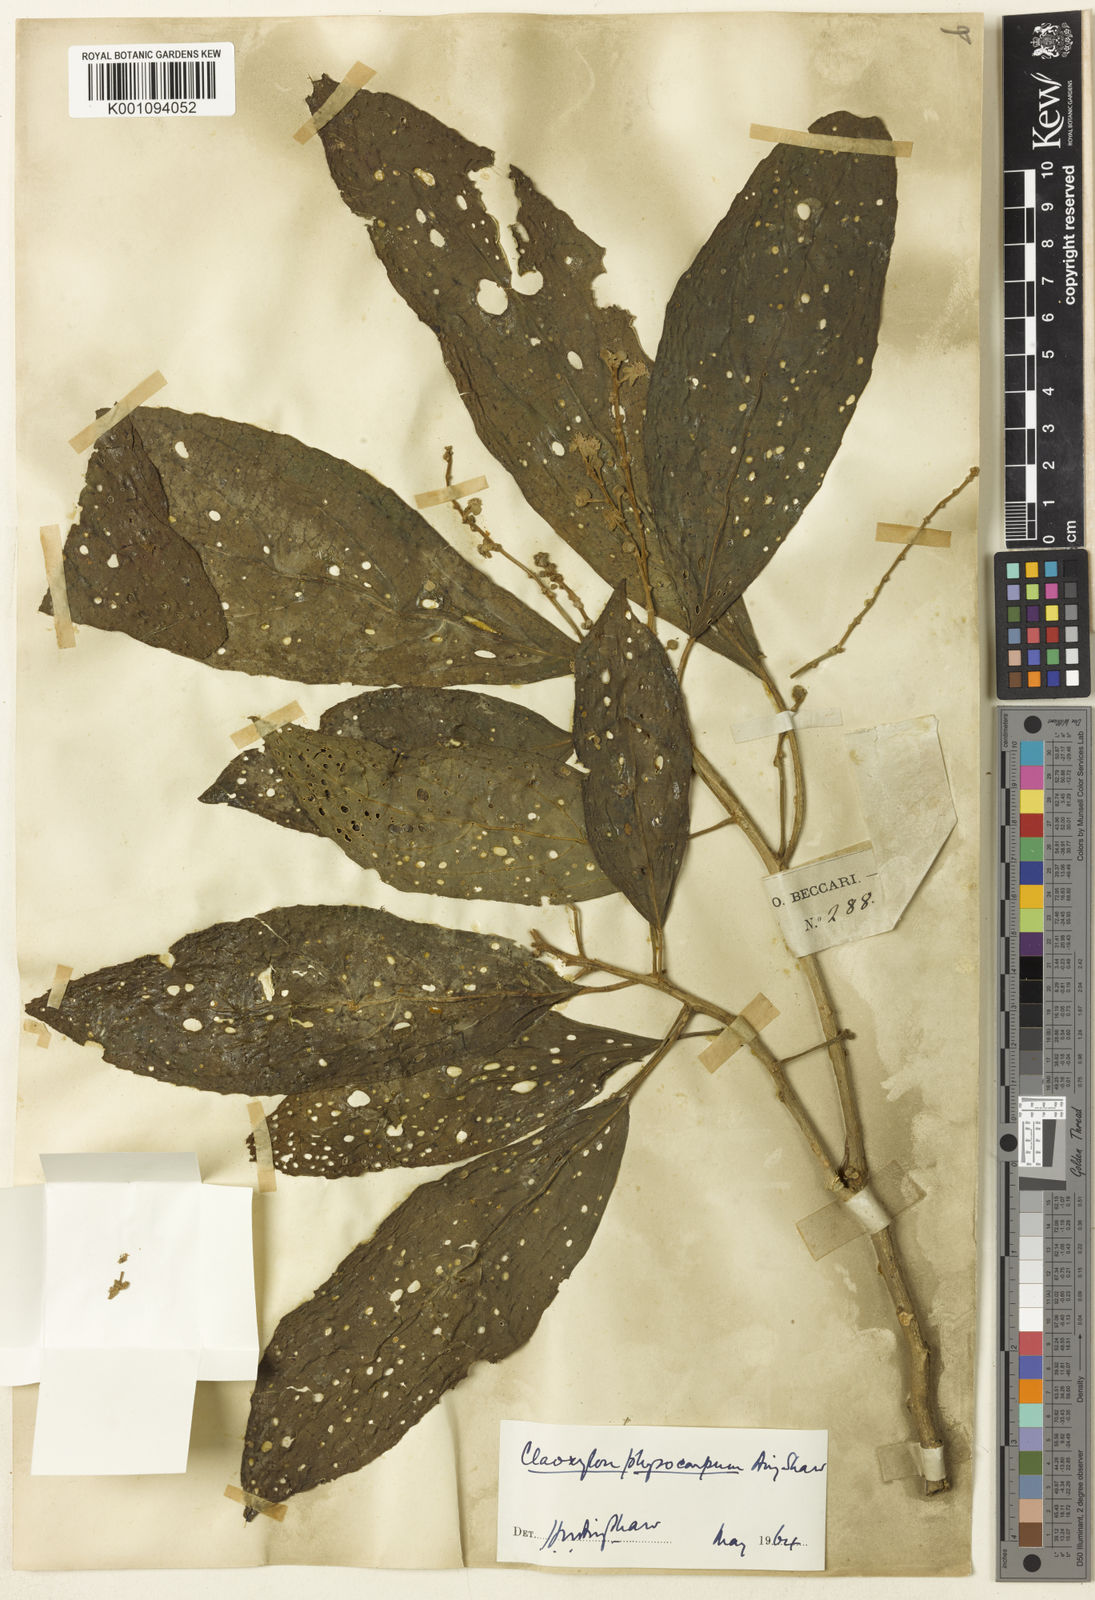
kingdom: Plantae
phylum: Tracheophyta
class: Magnoliopsida
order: Malpighiales
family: Euphorbiaceae
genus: Claoxylon
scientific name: Claoxylon physocarpum
